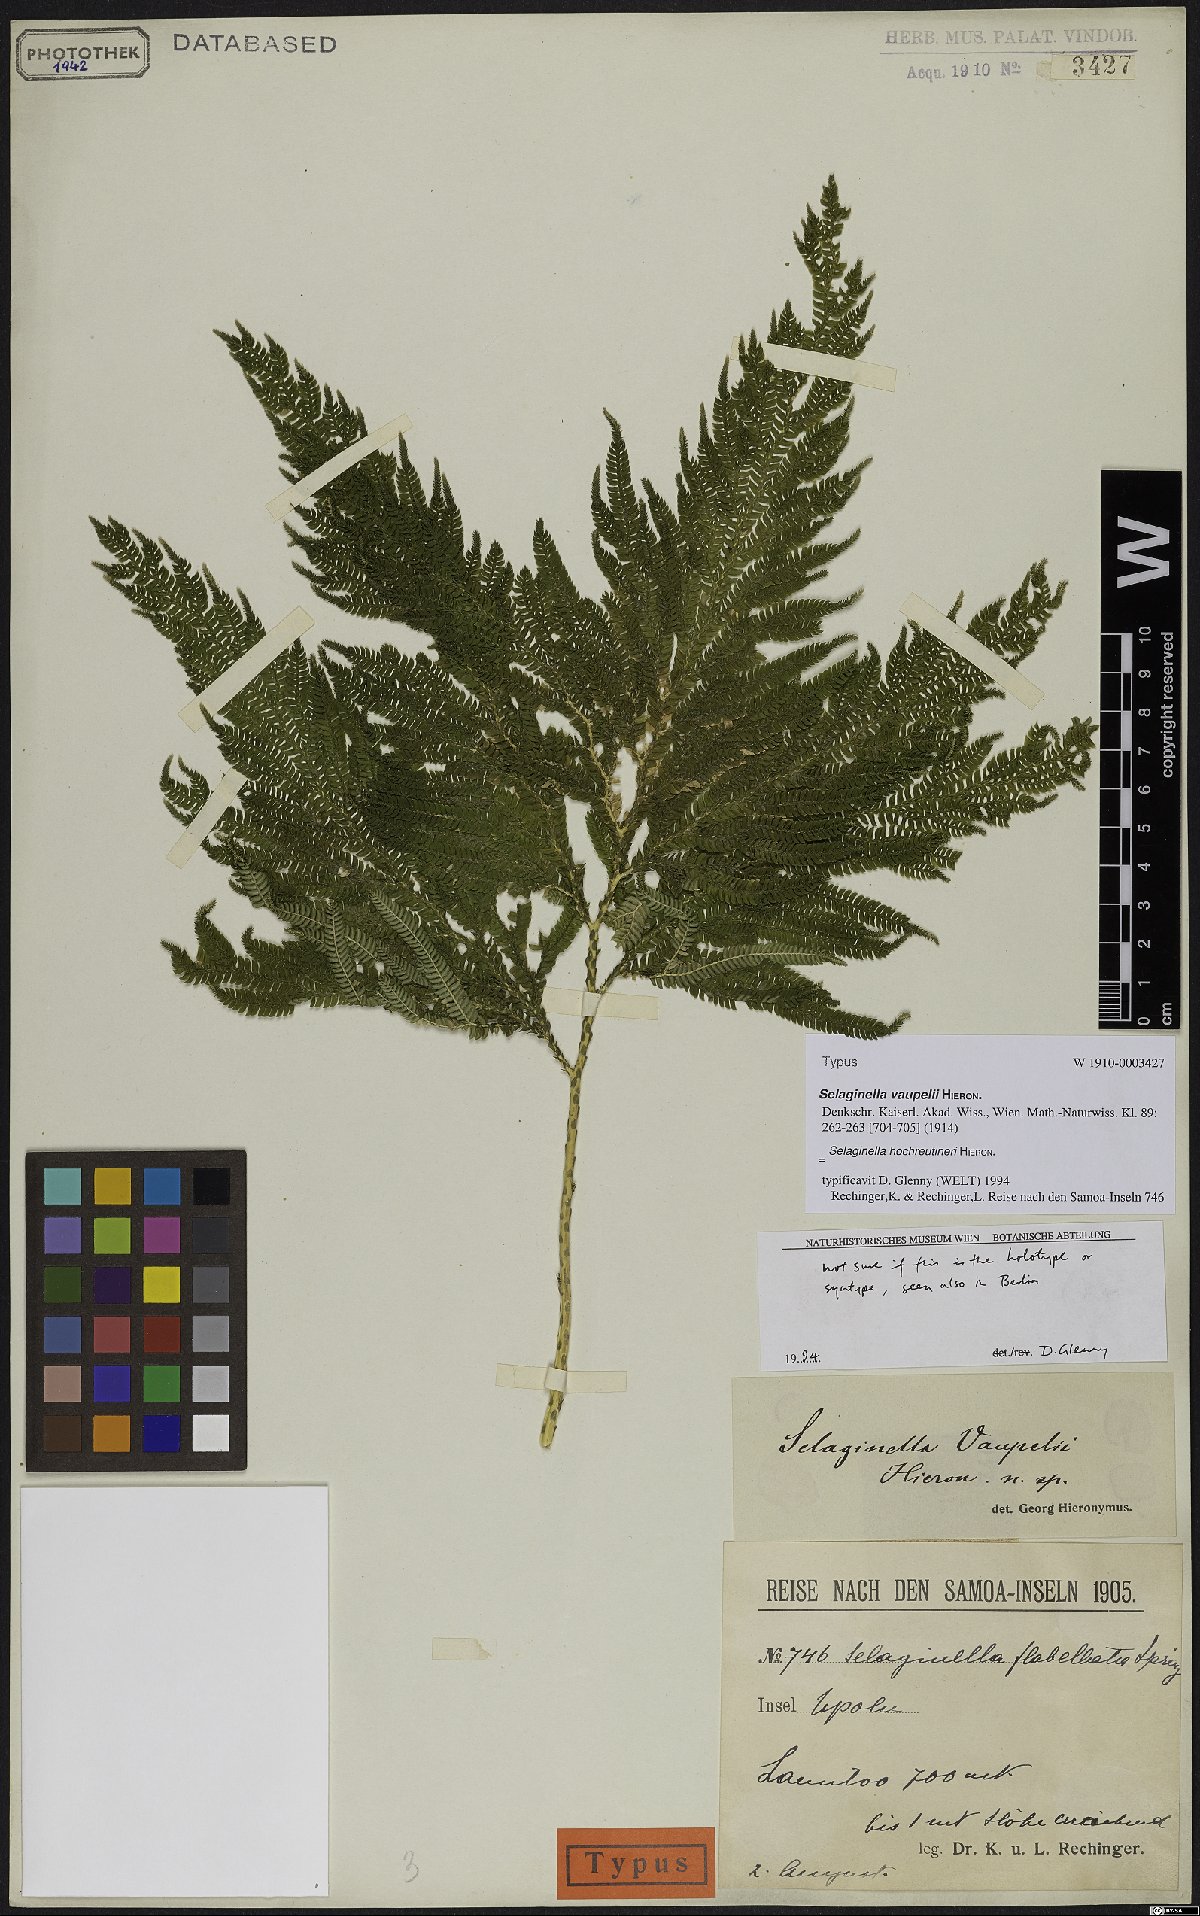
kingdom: Plantae
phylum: Tracheophyta
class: Lycopodiopsida
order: Selaginellales
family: Selaginellaceae
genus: Selaginella
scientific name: Selaginella hochreutineri
